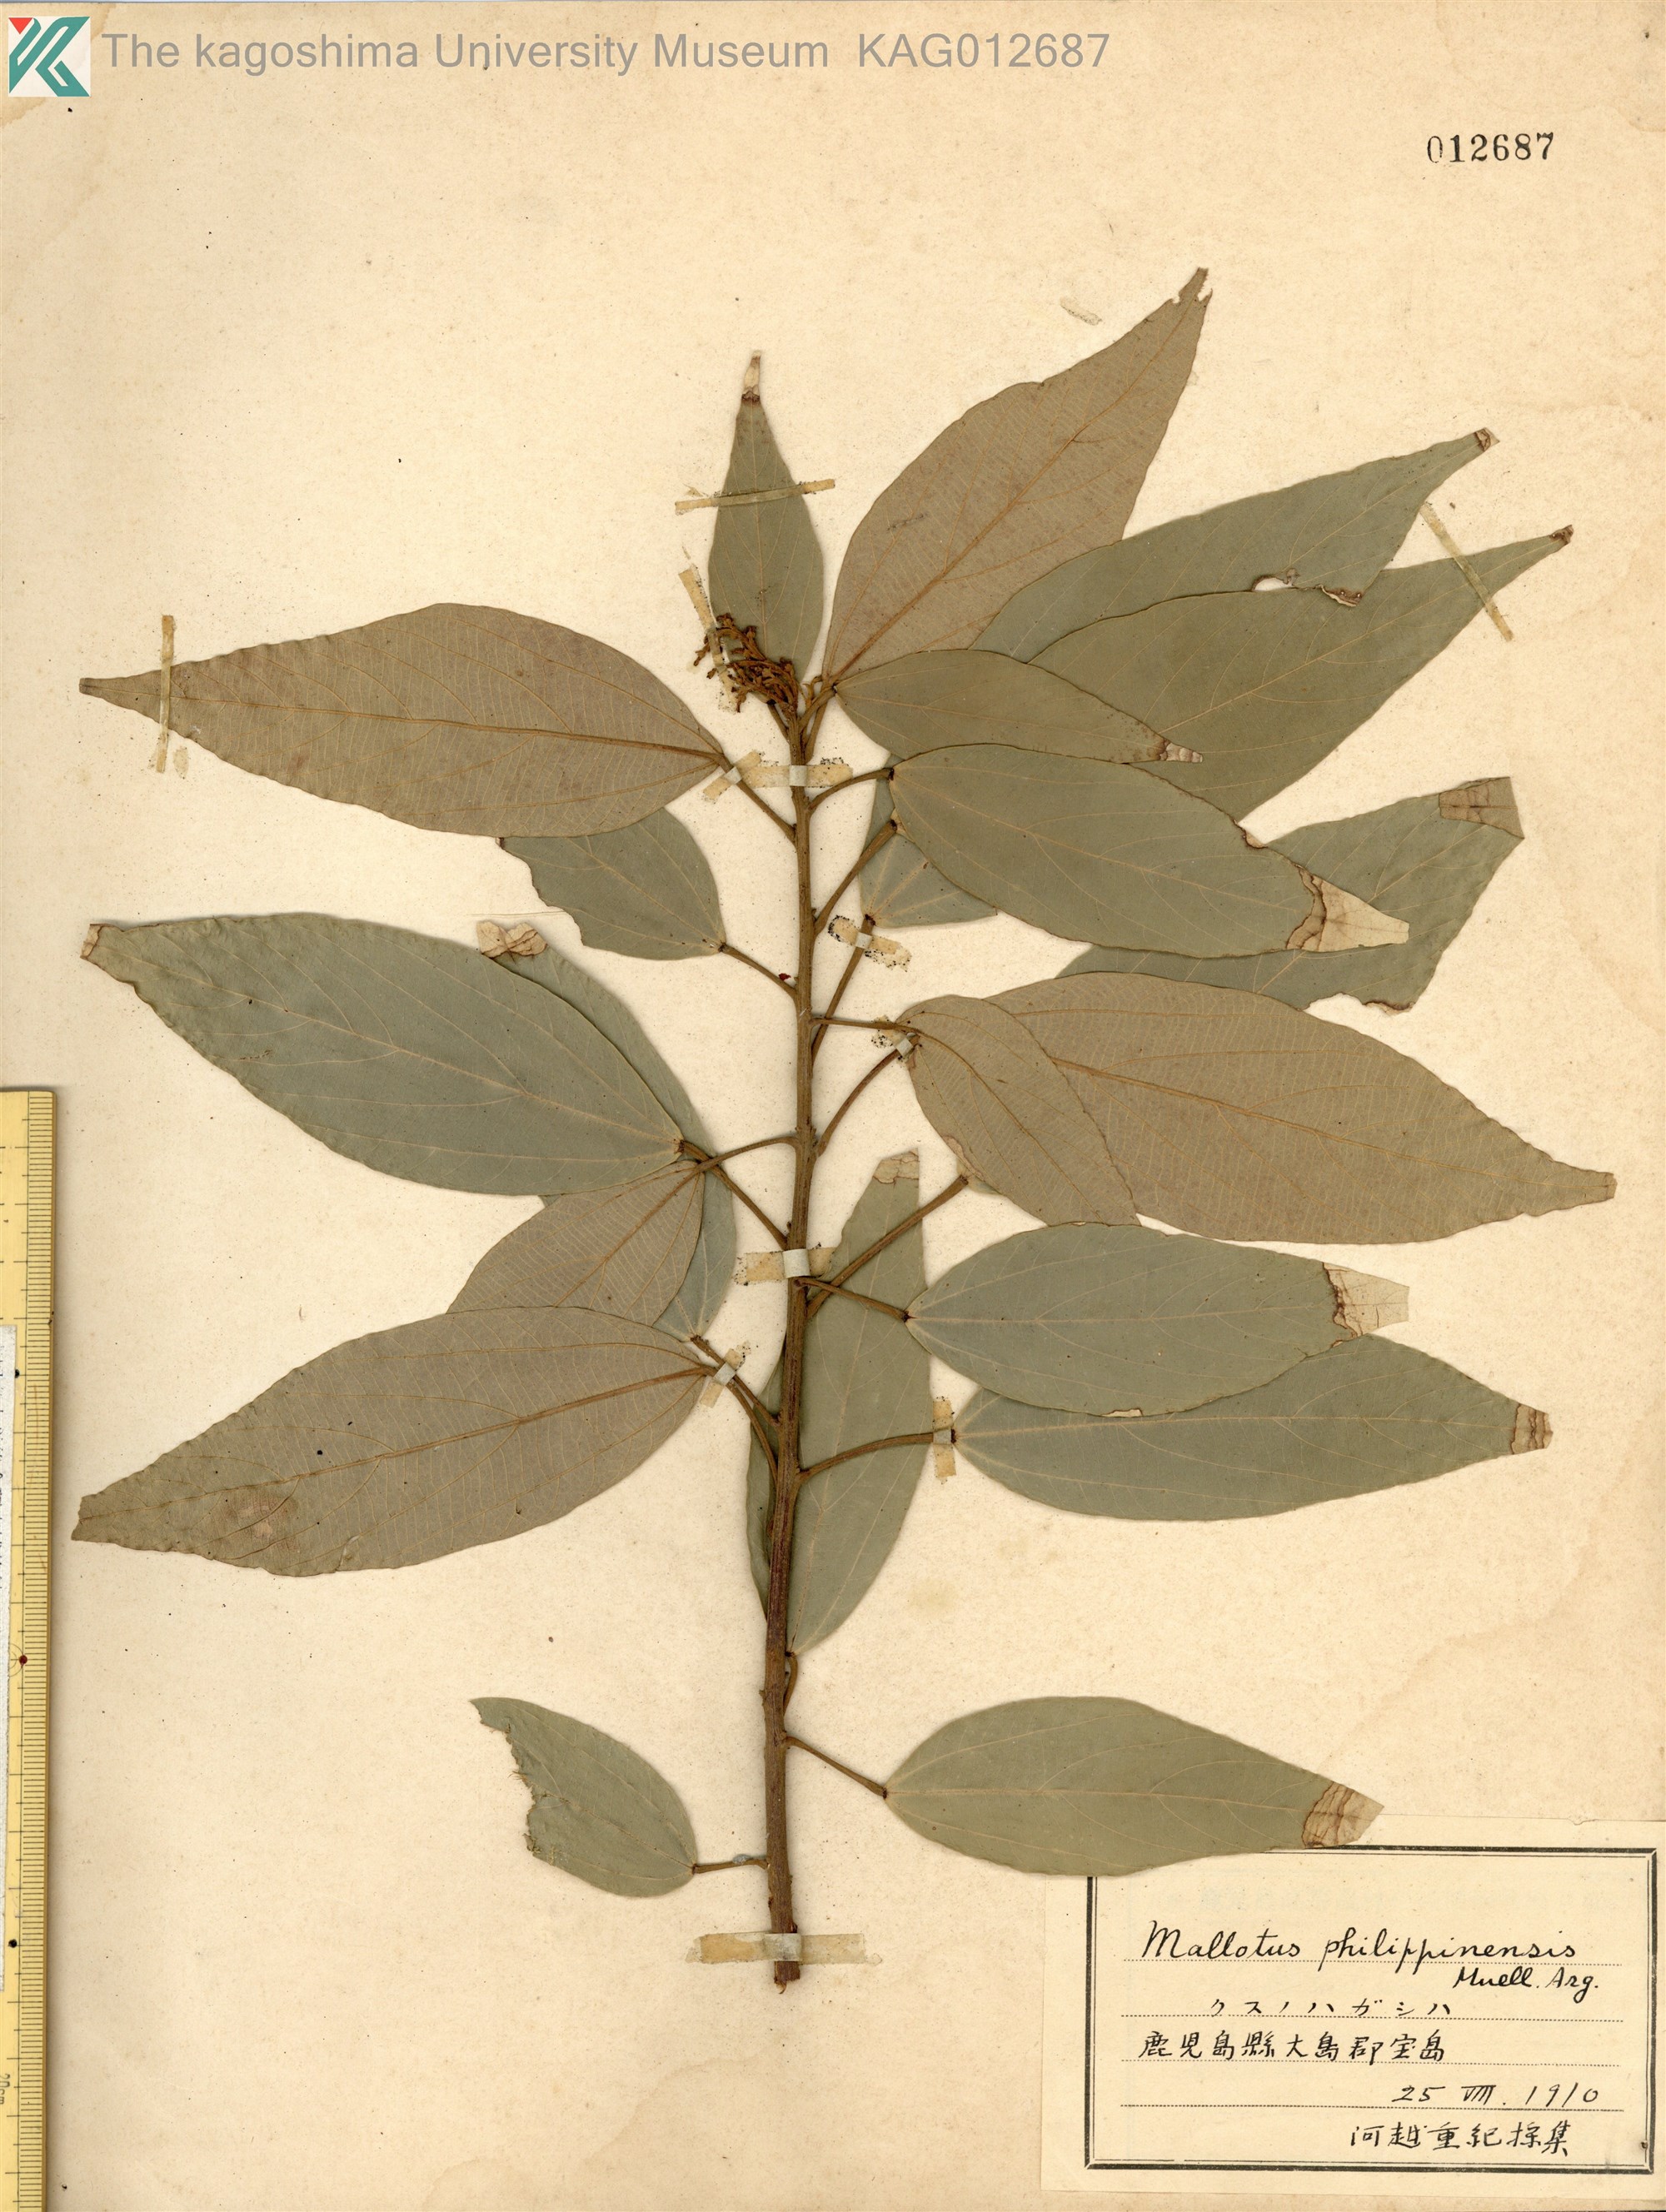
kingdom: Plantae
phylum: Tracheophyta
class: Magnoliopsida
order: Malpighiales
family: Euphorbiaceae
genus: Mallotus
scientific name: Mallotus philippensis
